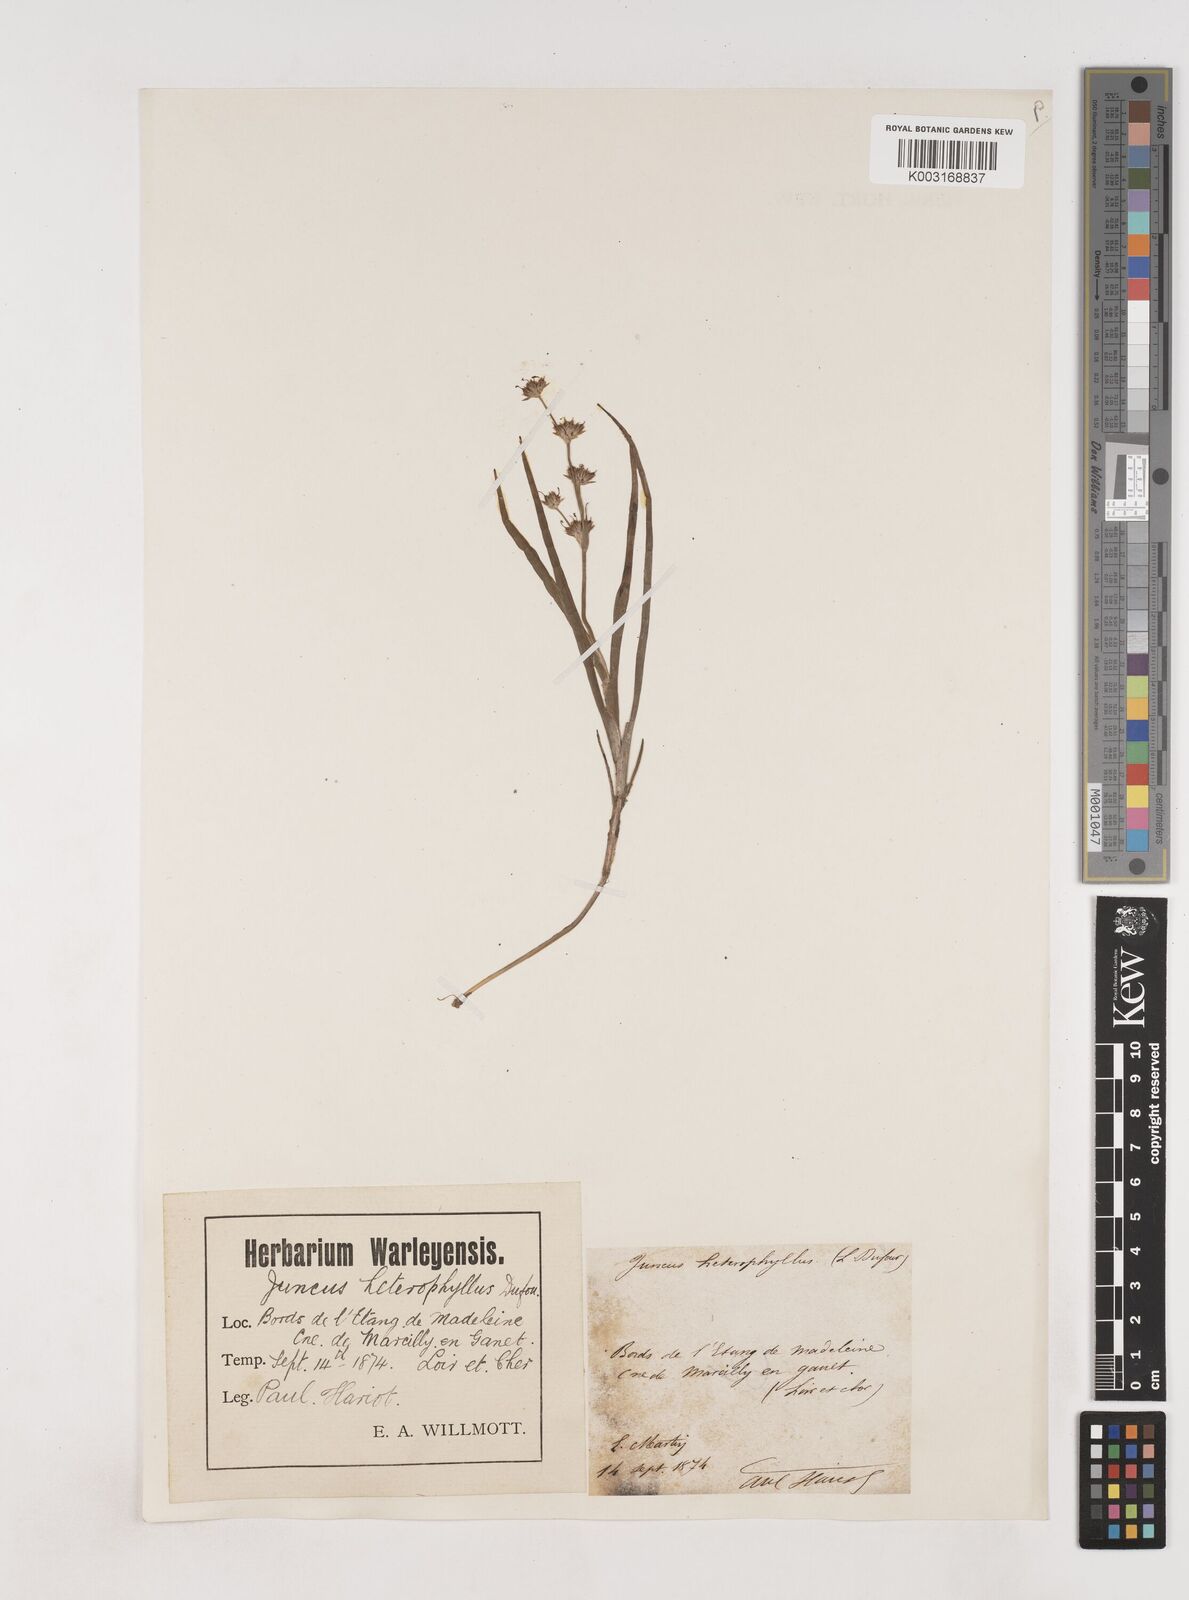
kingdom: Plantae
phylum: Tracheophyta
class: Liliopsida
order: Poales
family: Juncaceae
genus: Juncus
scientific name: Juncus heterophyllus
